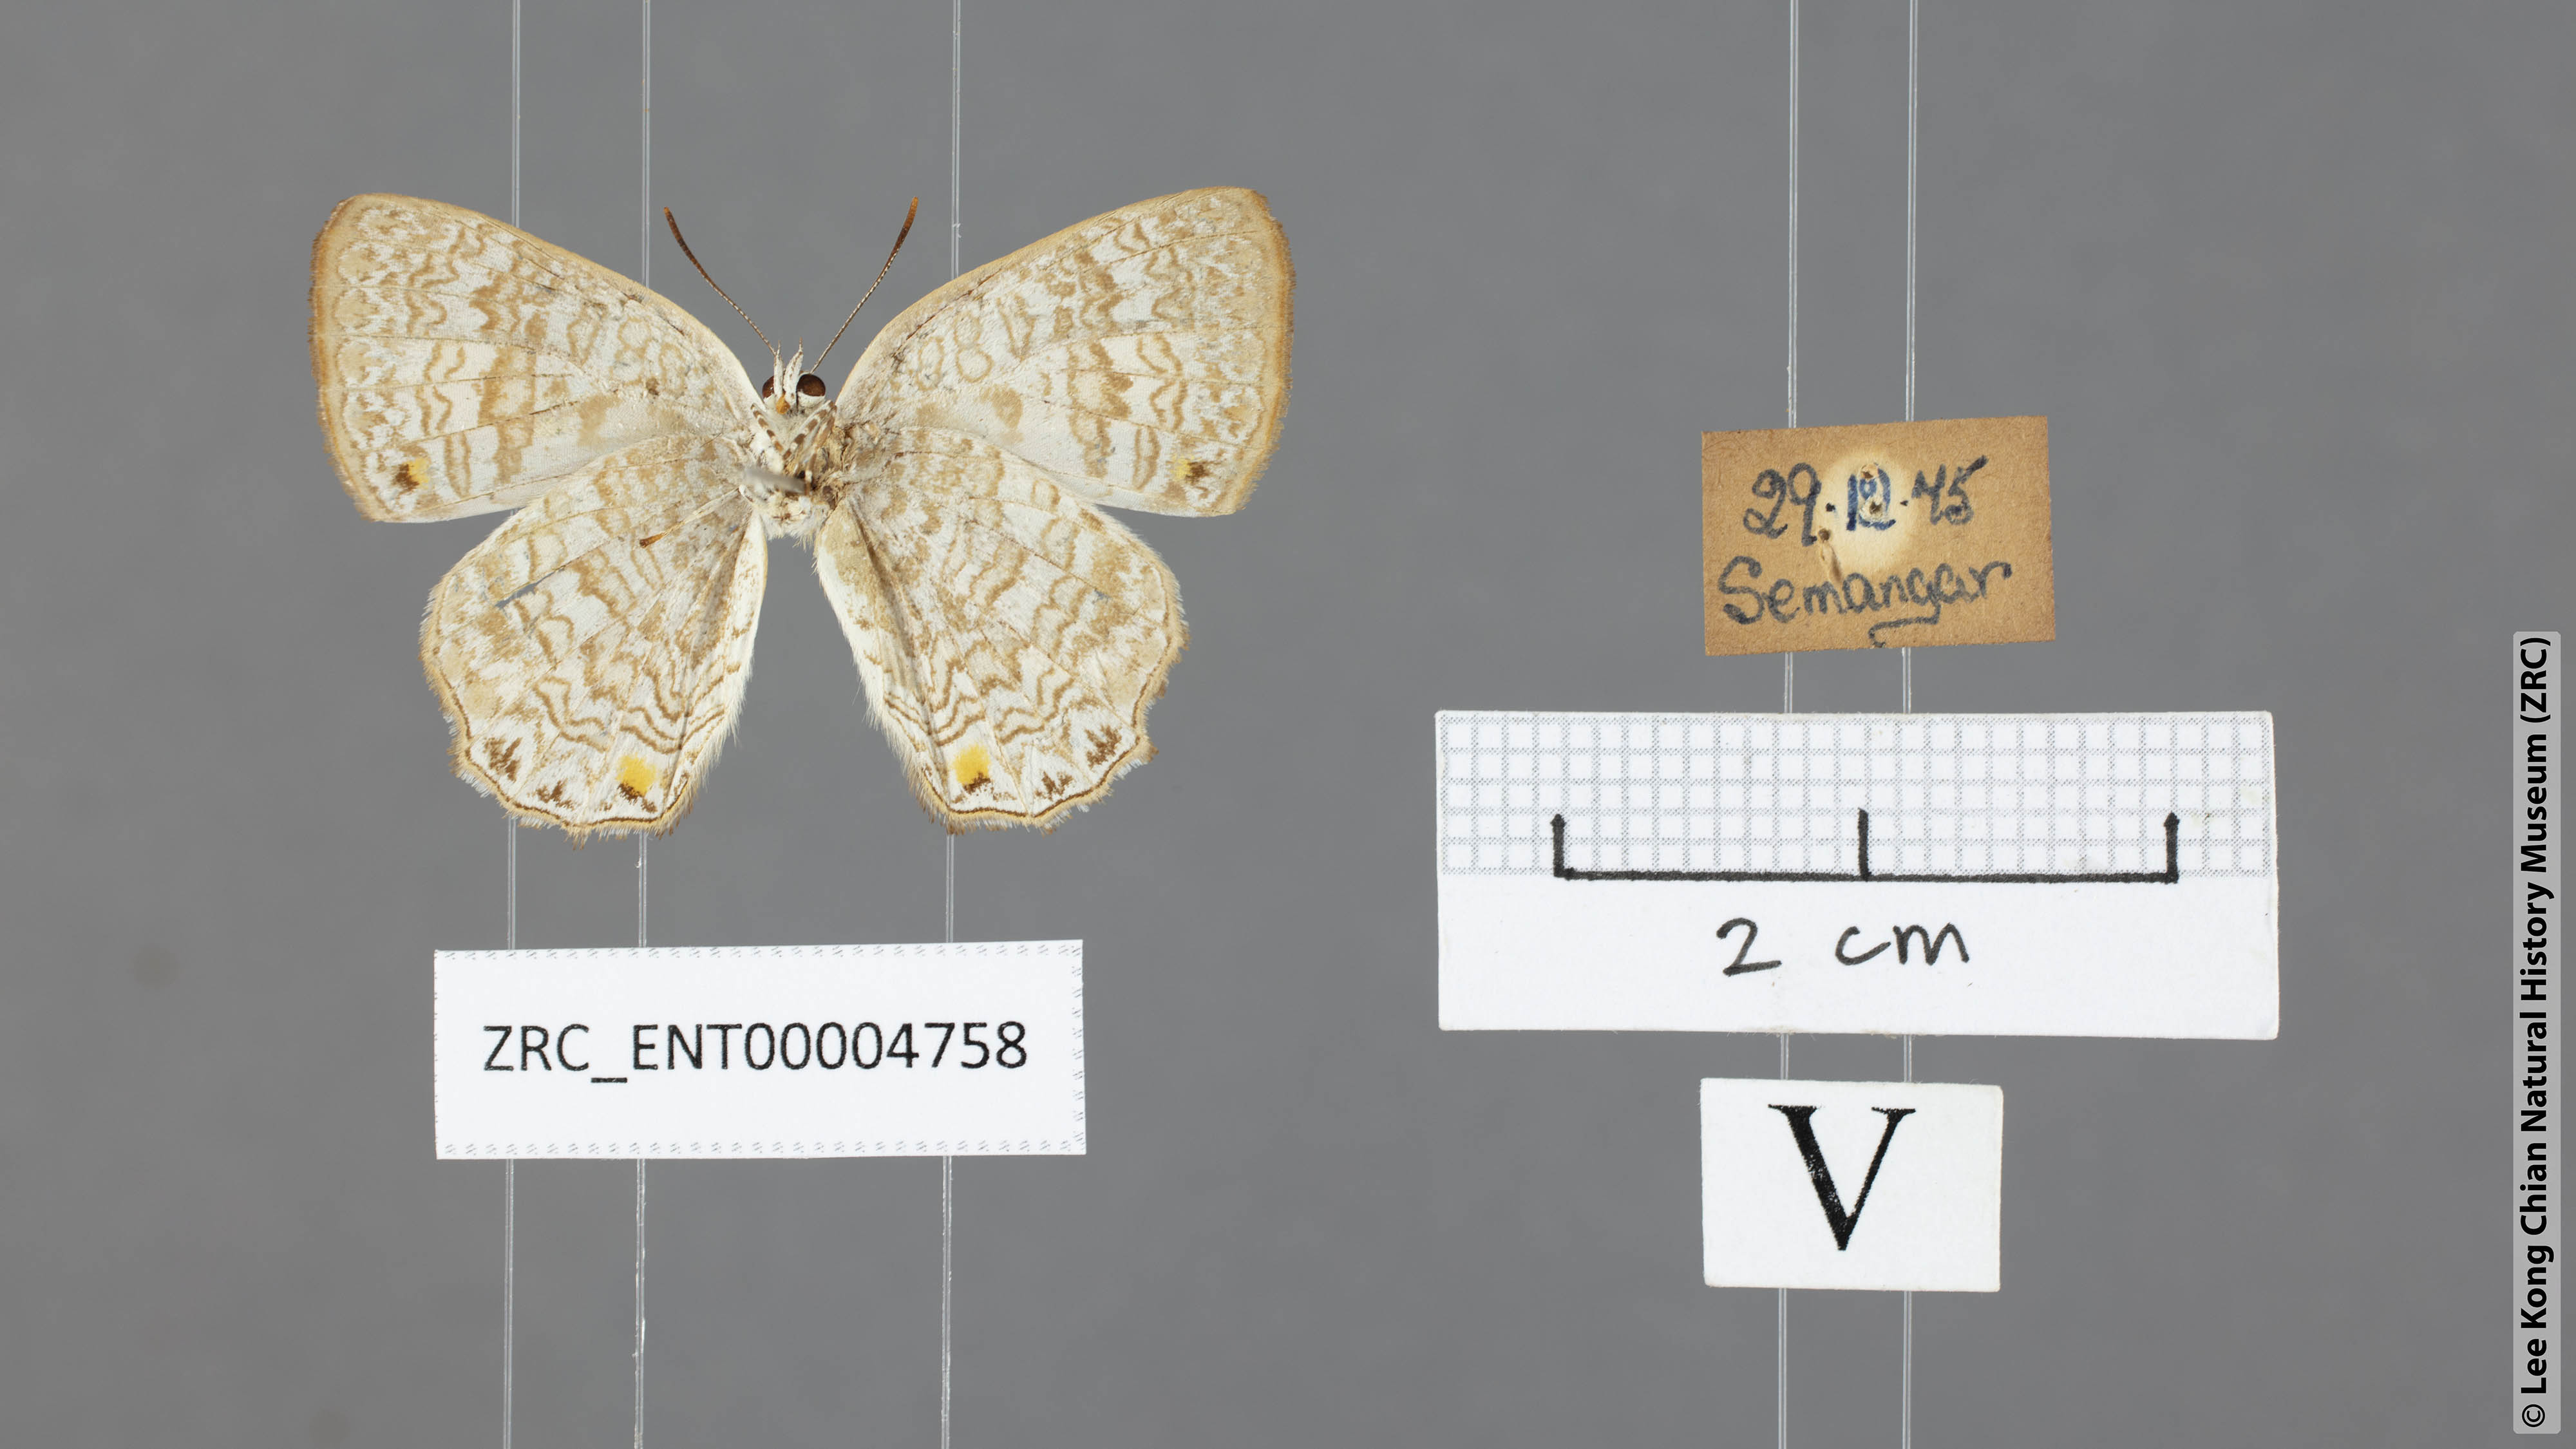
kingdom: Animalia
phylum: Arthropoda
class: Insecta
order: Lepidoptera
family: Lycaenidae
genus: Poritia
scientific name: Poritia erycinoides
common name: Blue gem
